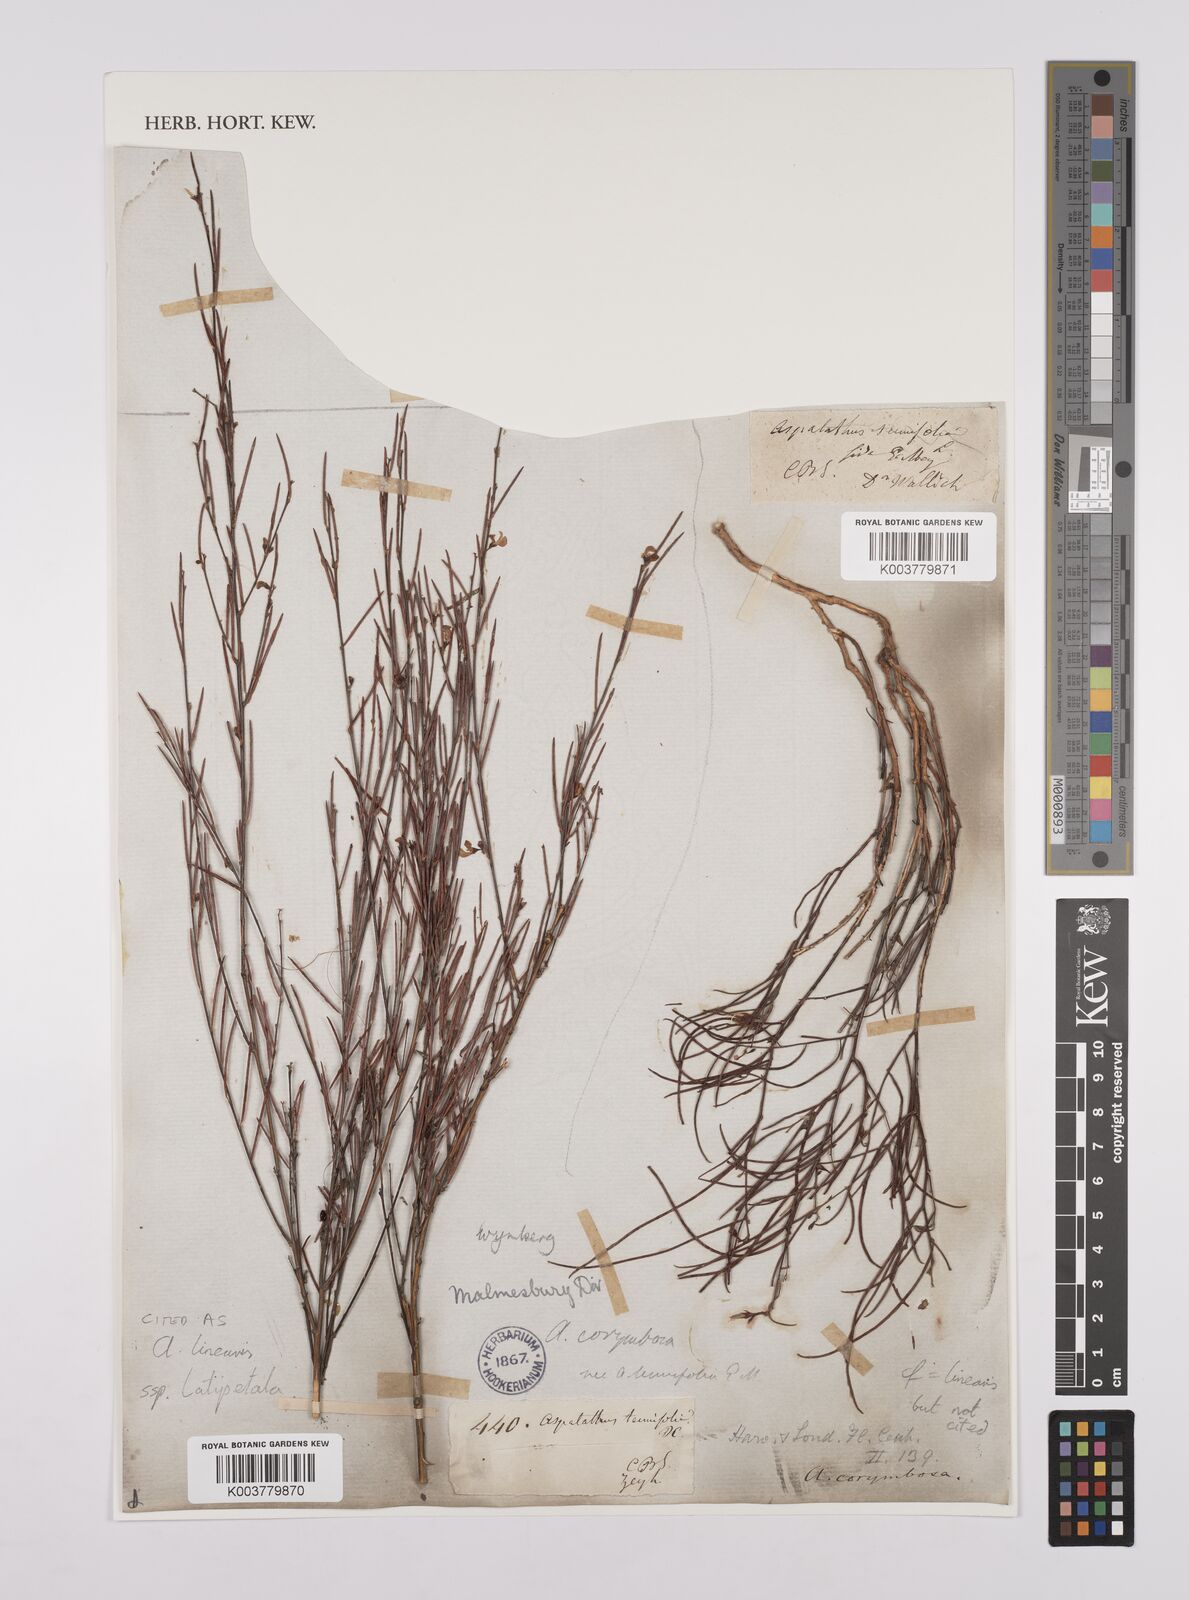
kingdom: Plantae
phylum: Tracheophyta
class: Magnoliopsida
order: Fabales
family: Fabaceae
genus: Aspalathus
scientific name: Aspalathus linearis
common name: Rooibos-tea
